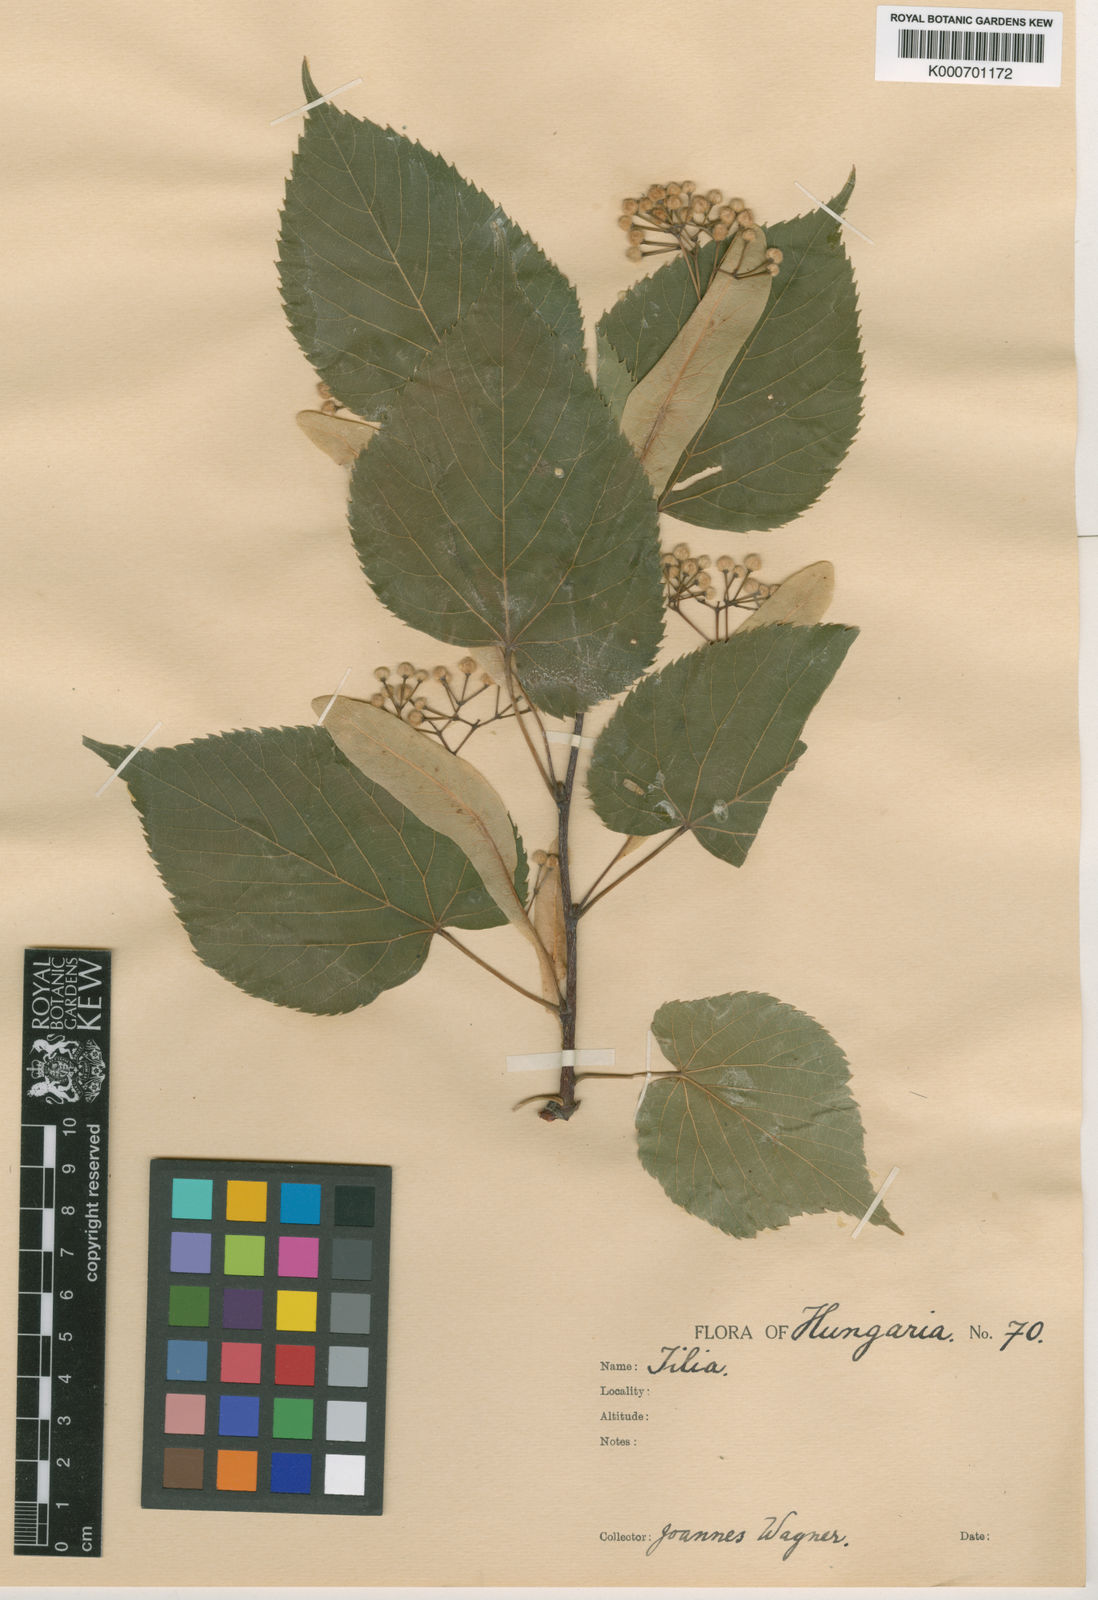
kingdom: Plantae
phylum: Tracheophyta
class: Magnoliopsida
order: Malvales
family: Malvaceae
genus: Tilia
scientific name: Tilia
